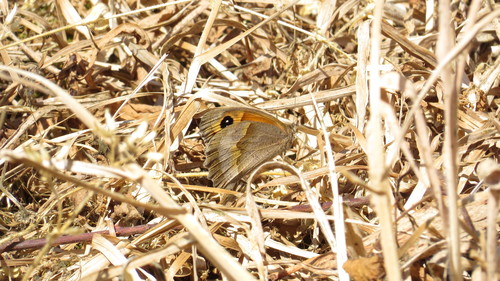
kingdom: Animalia
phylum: Arthropoda
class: Insecta
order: Lepidoptera
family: Nymphalidae
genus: Maniola
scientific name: Maniola jurtina
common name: Meadow brown
